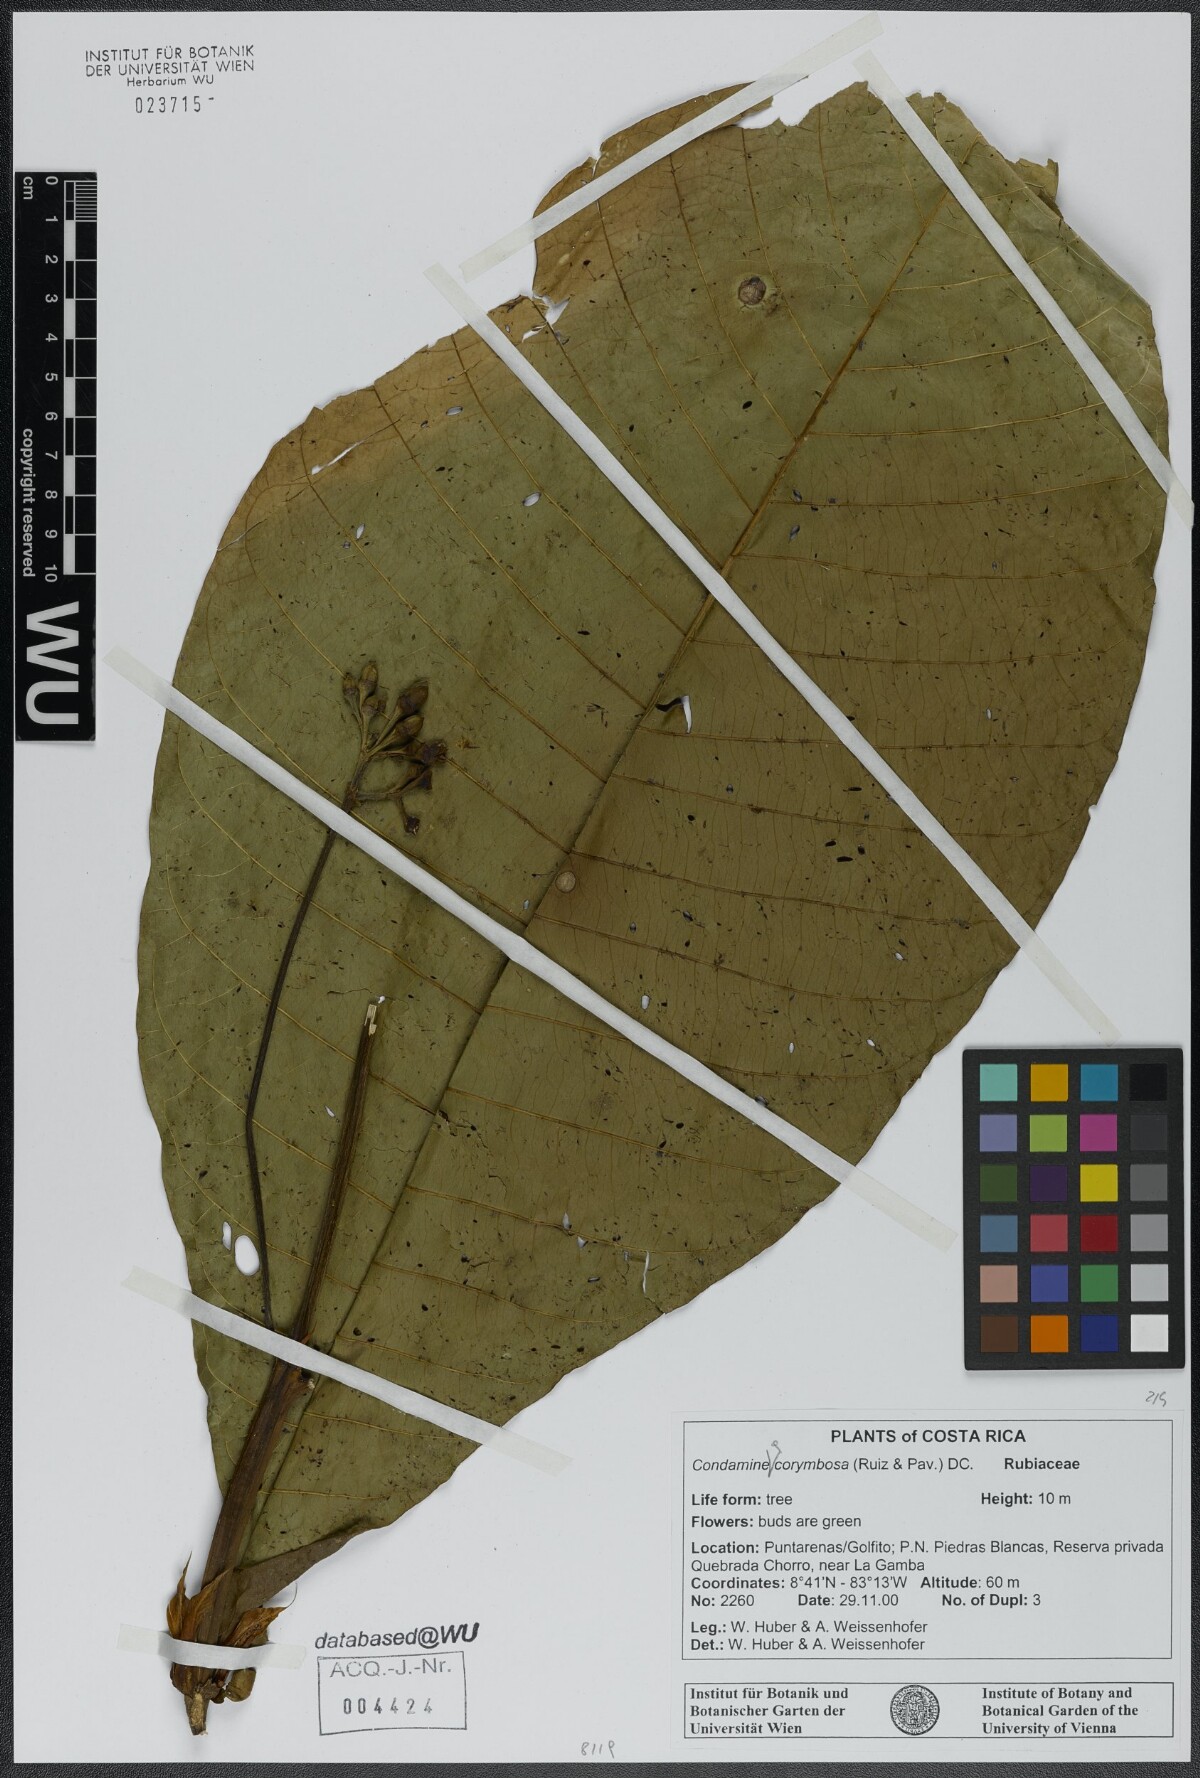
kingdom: Plantae
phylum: Tracheophyta
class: Magnoliopsida
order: Gentianales
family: Rubiaceae
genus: Condaminea
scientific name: Condaminea corymbosa
